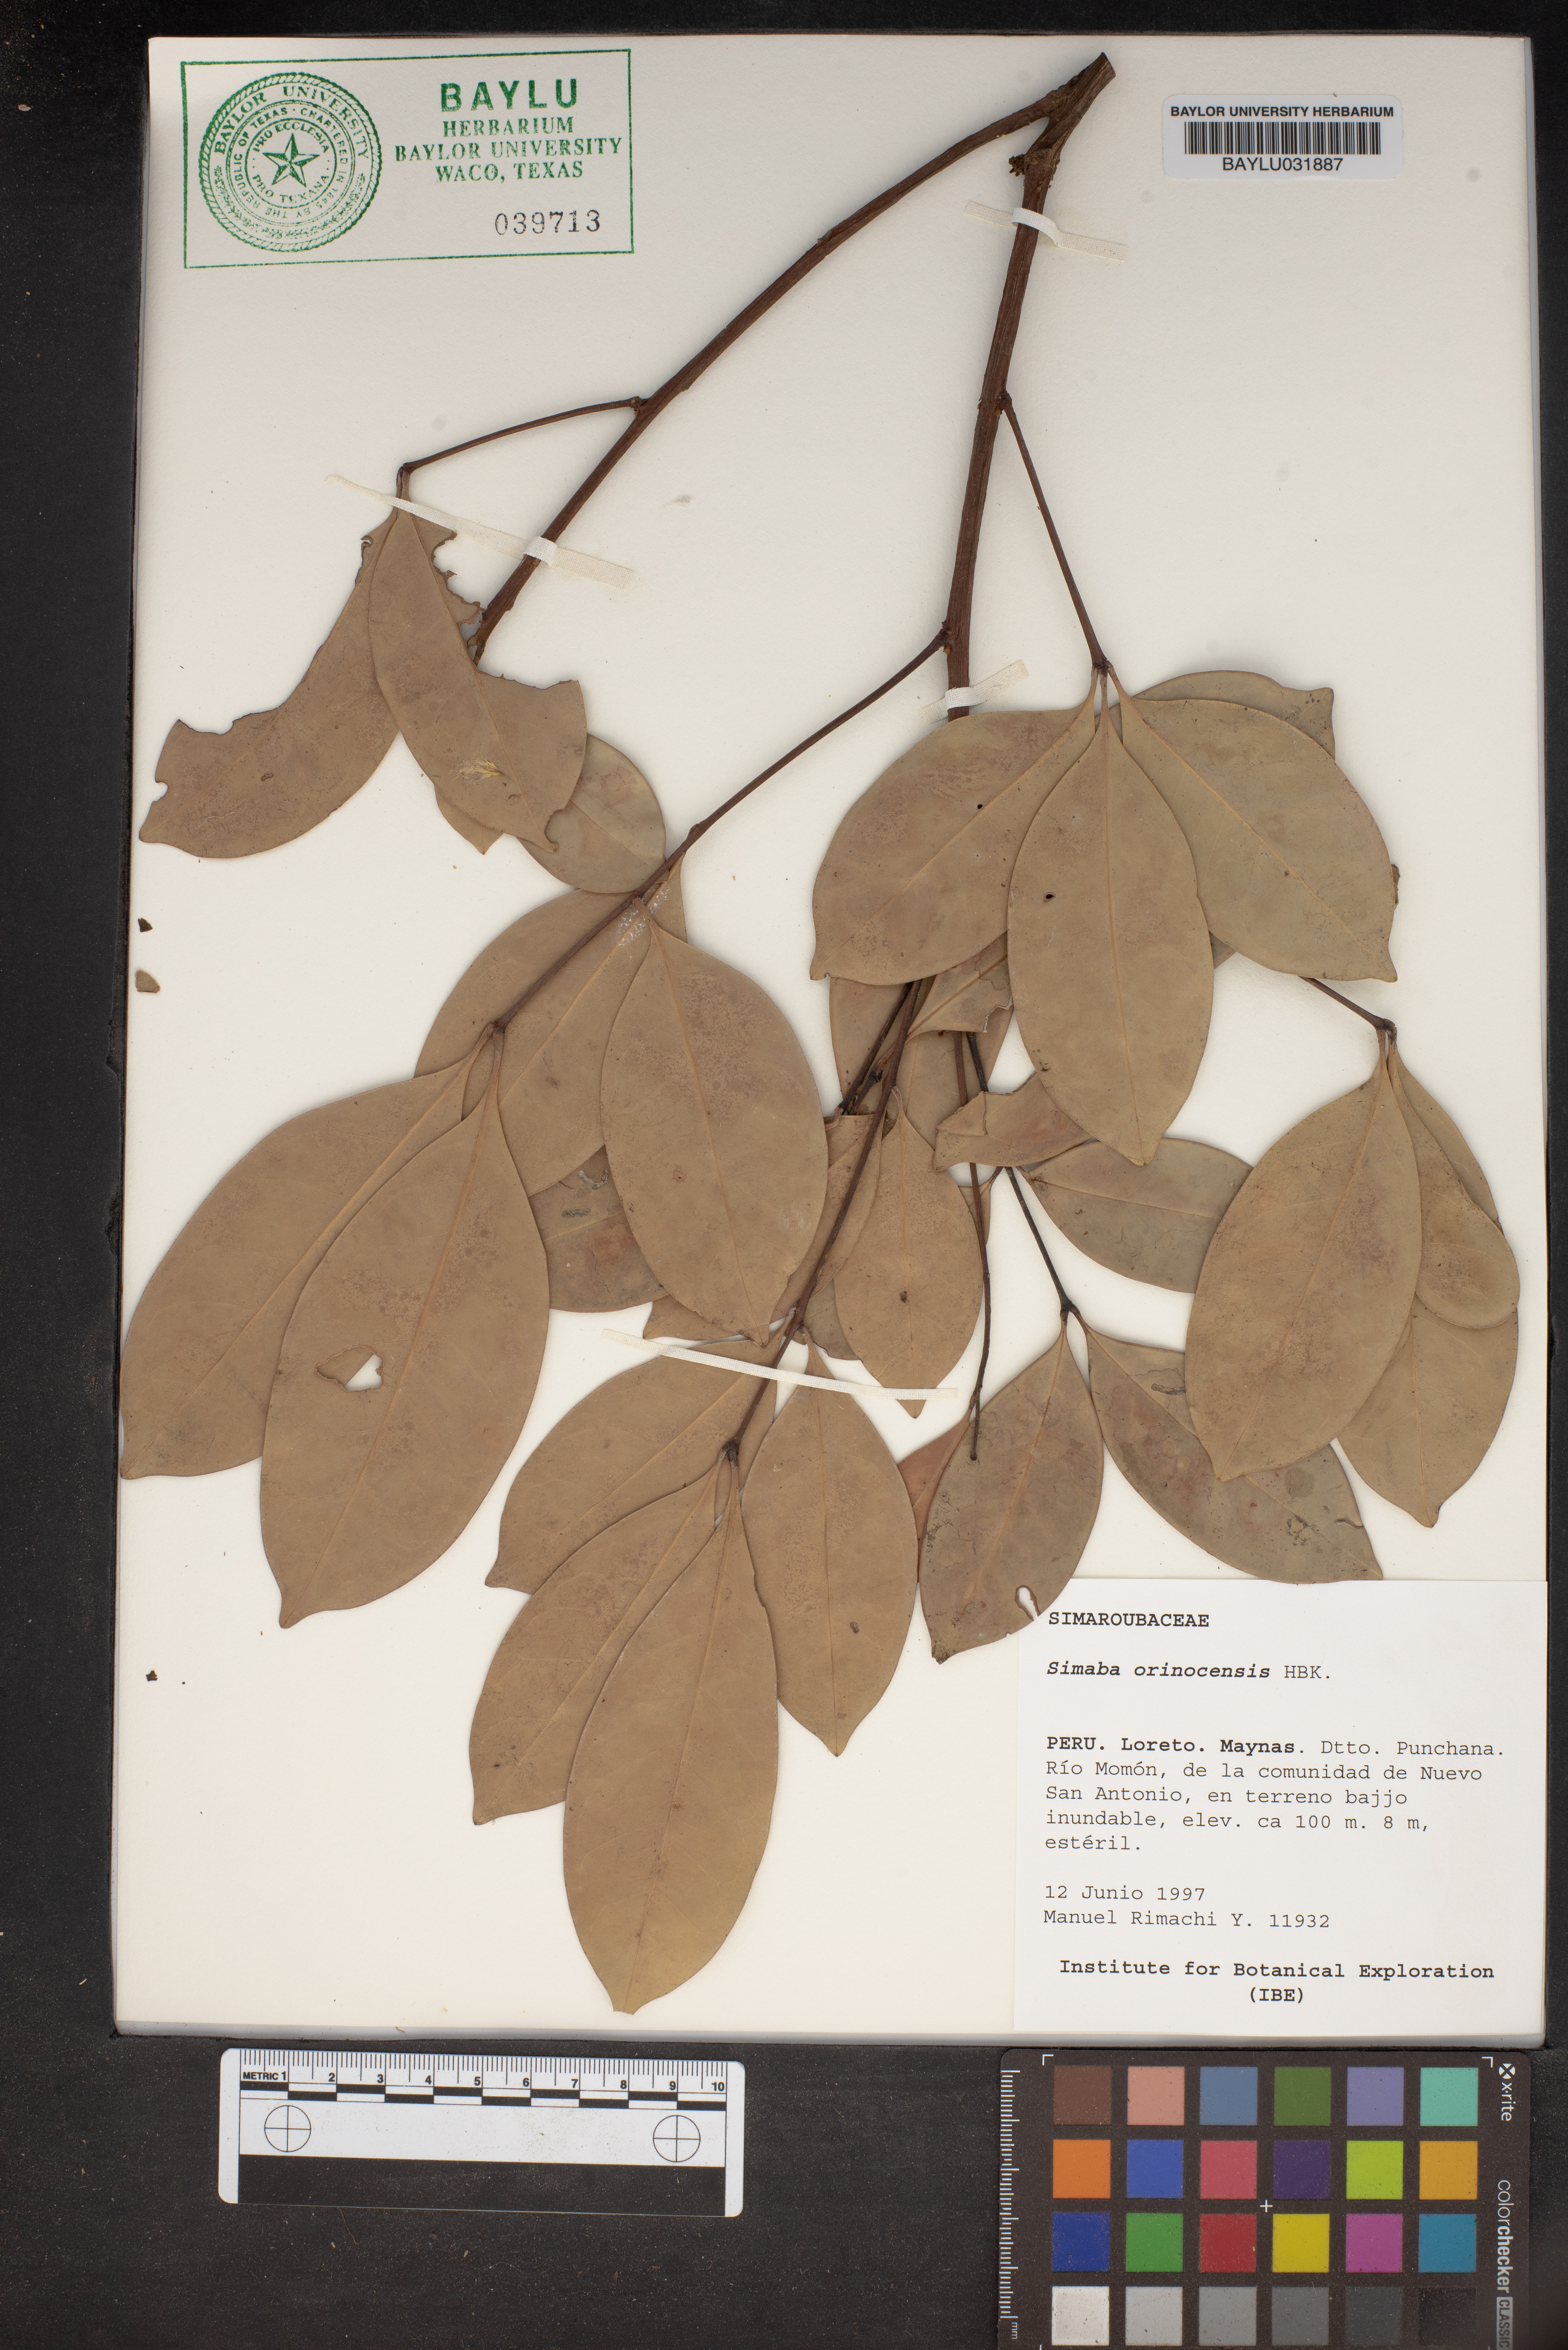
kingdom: Plantae
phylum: Tracheophyta
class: Magnoliopsida
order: Sapindales
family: Simaroubaceae
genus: Simaba
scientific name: Simaba orinocensis
